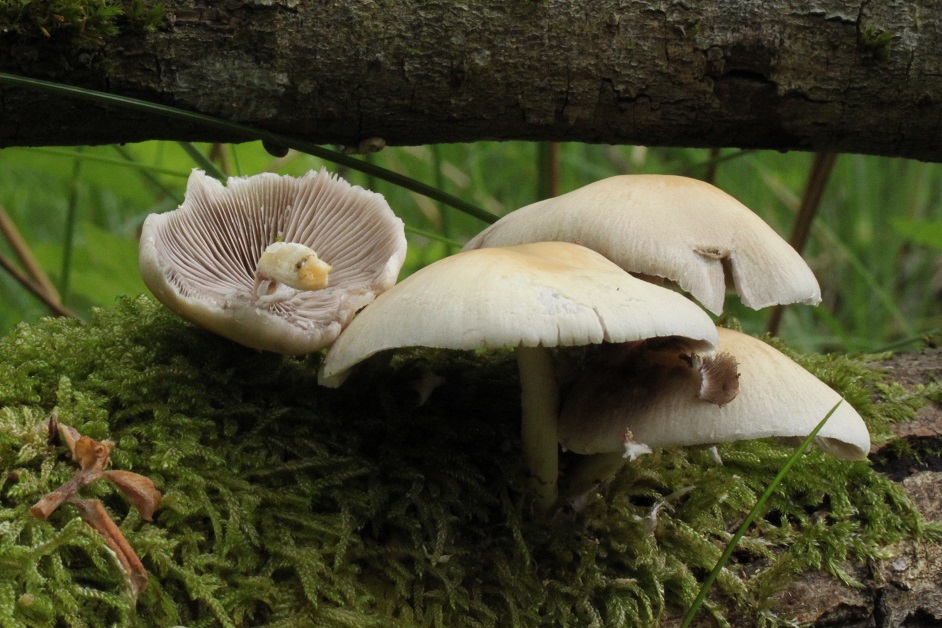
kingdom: Fungi
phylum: Basidiomycota
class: Agaricomycetes
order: Agaricales
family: Psathyrellaceae
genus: Candolleomyces
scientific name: Candolleomyces candolleanus
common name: Candolles mørkhat
